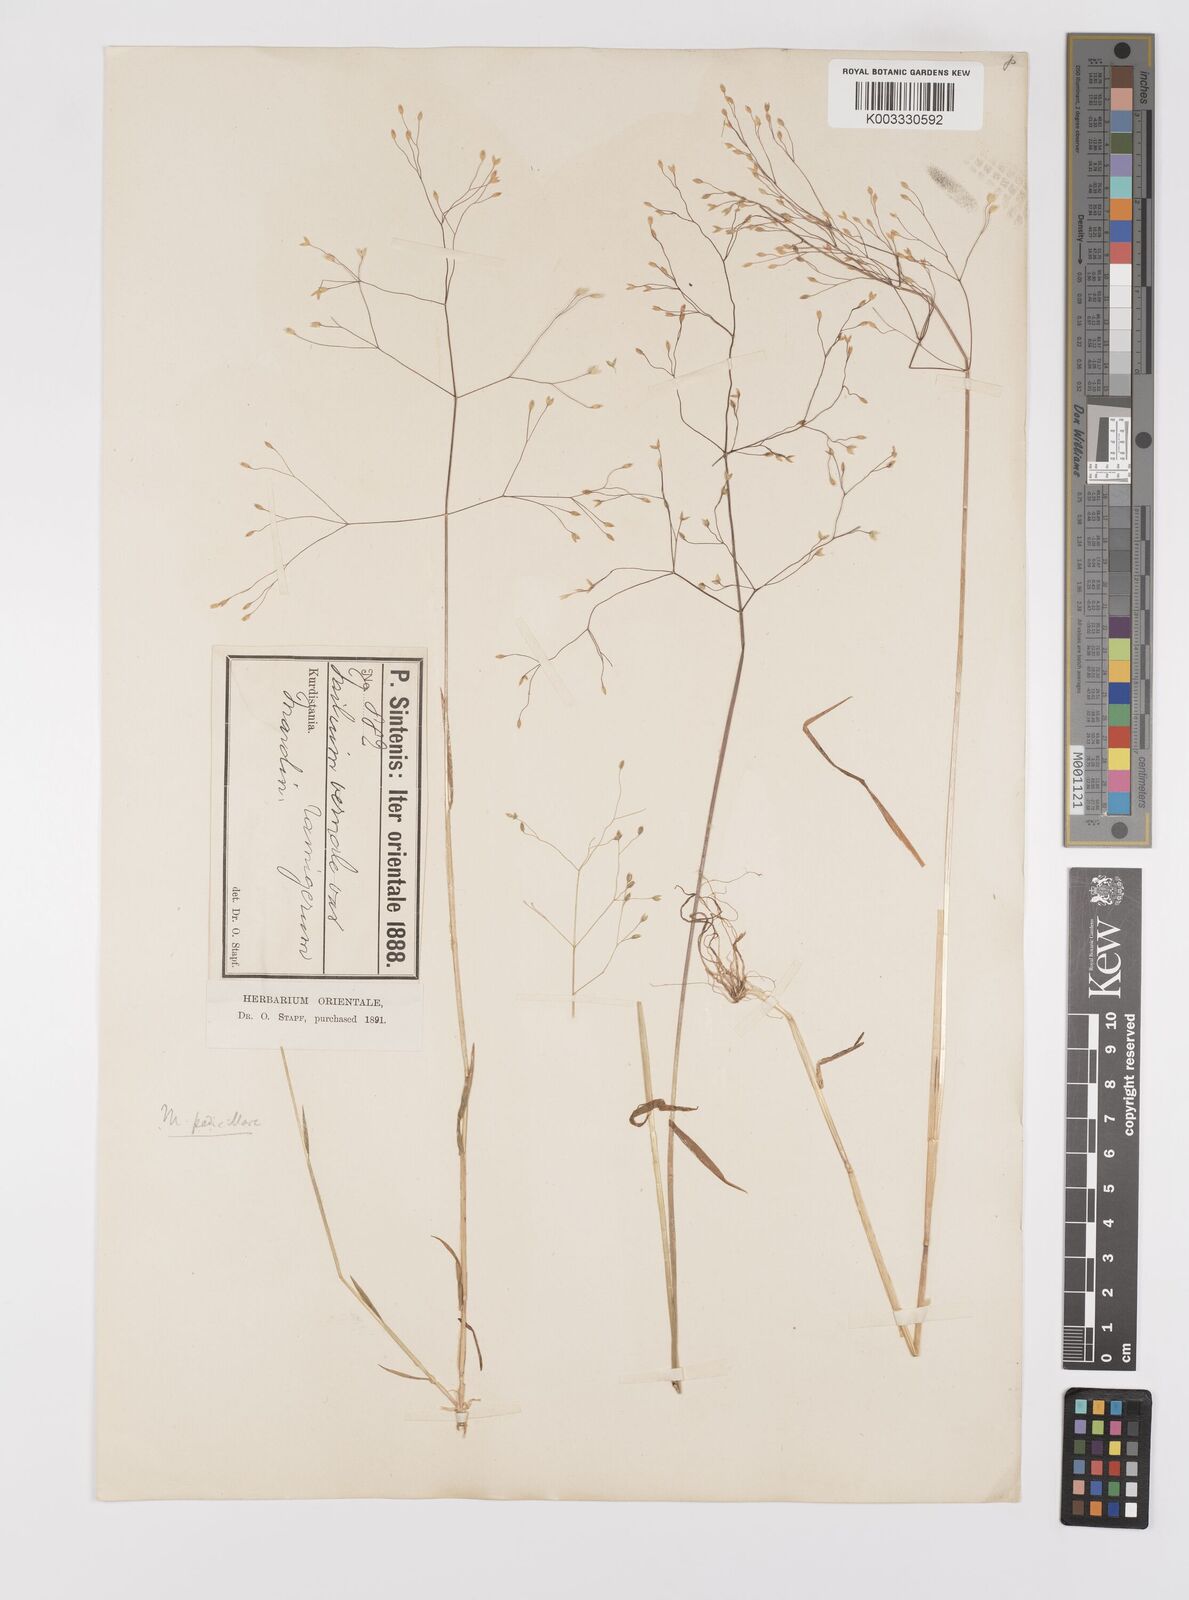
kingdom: Plantae
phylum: Tracheophyta
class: Liliopsida
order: Poales
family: Poaceae
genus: Milium
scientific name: Milium pedicellare
